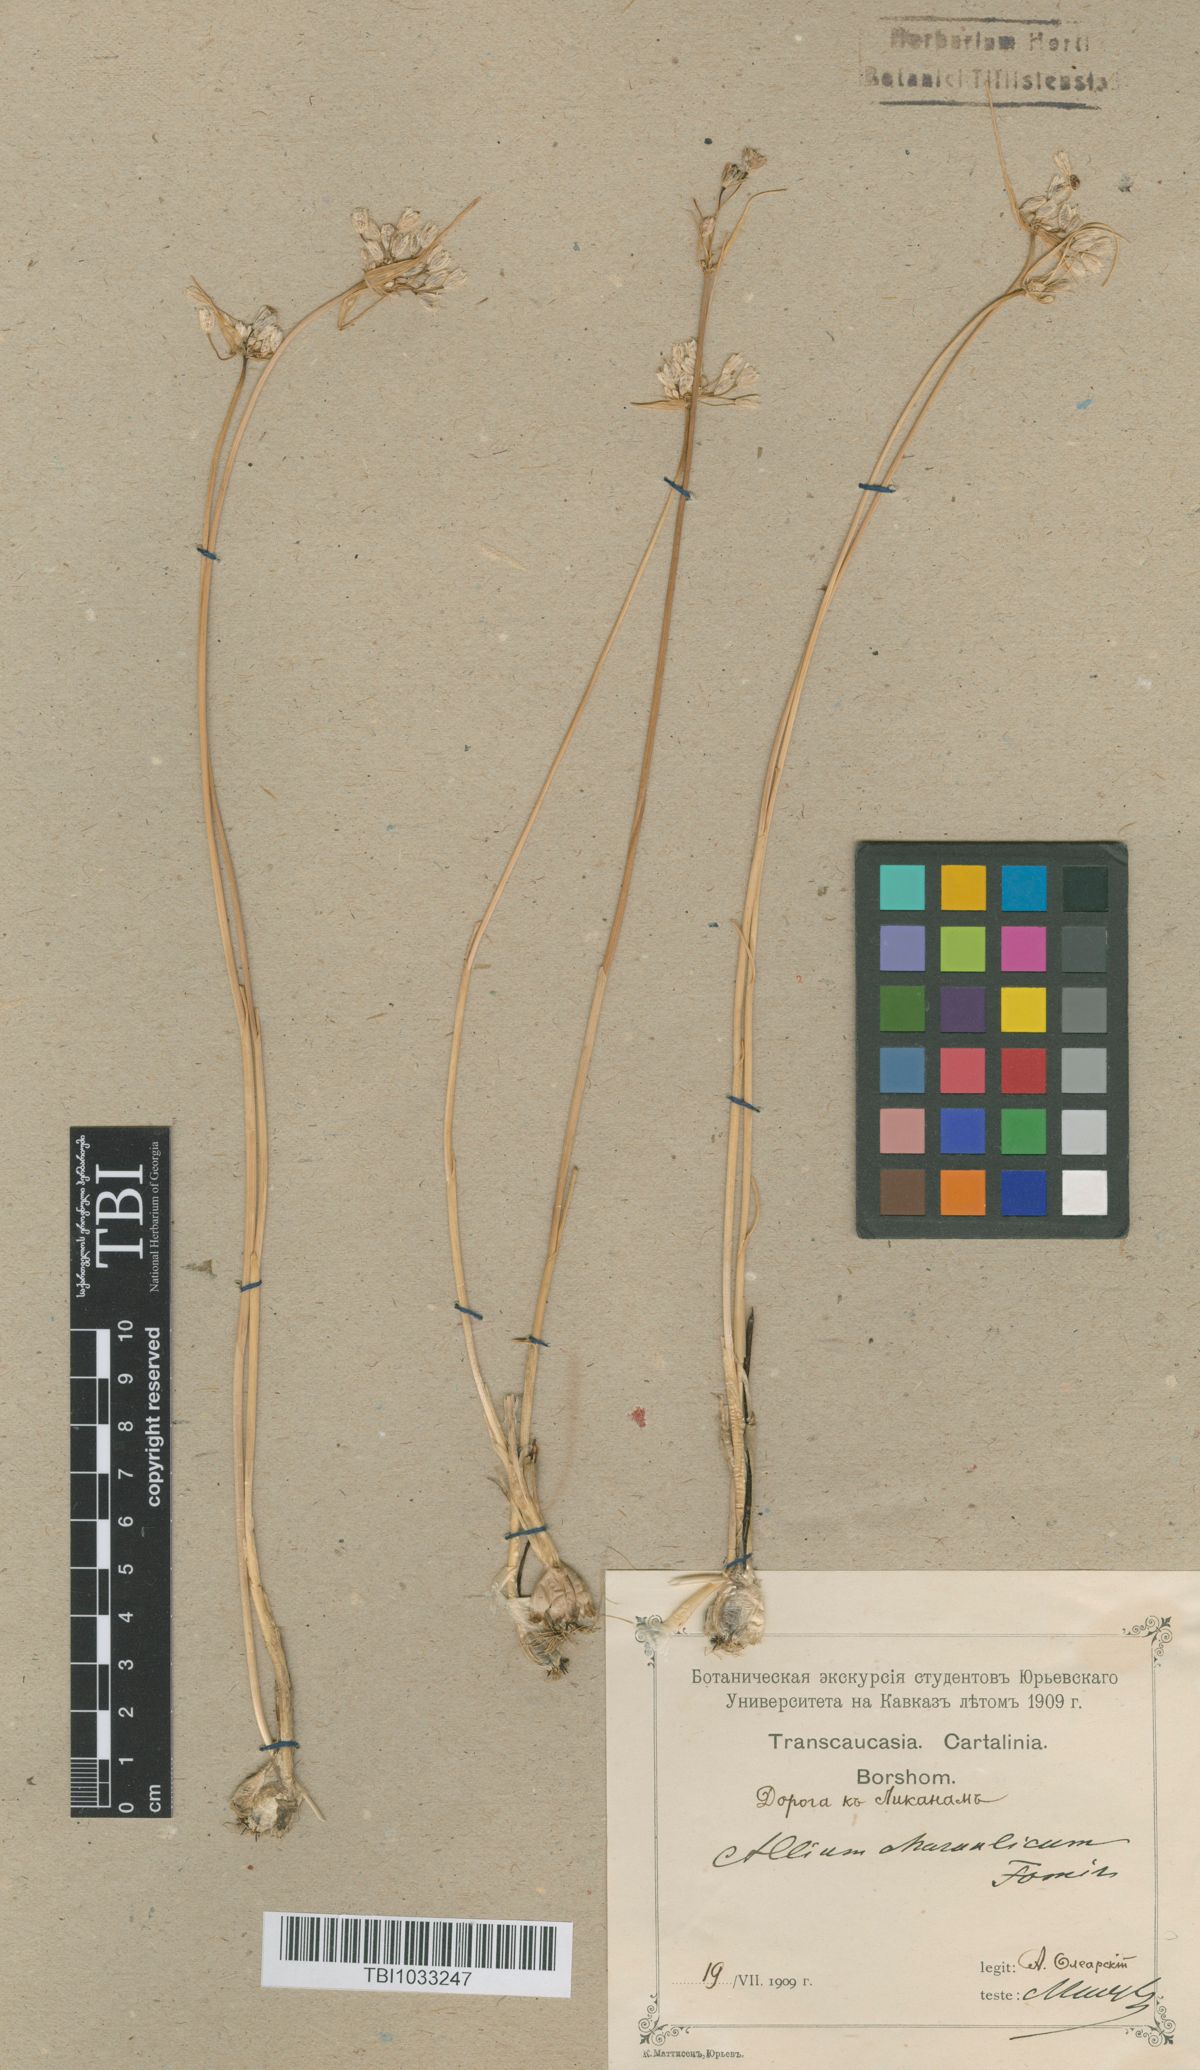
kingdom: Plantae
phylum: Tracheophyta
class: Liliopsida
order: Asparagales
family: Amaryllidaceae
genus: Allium
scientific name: Allium rupestre
